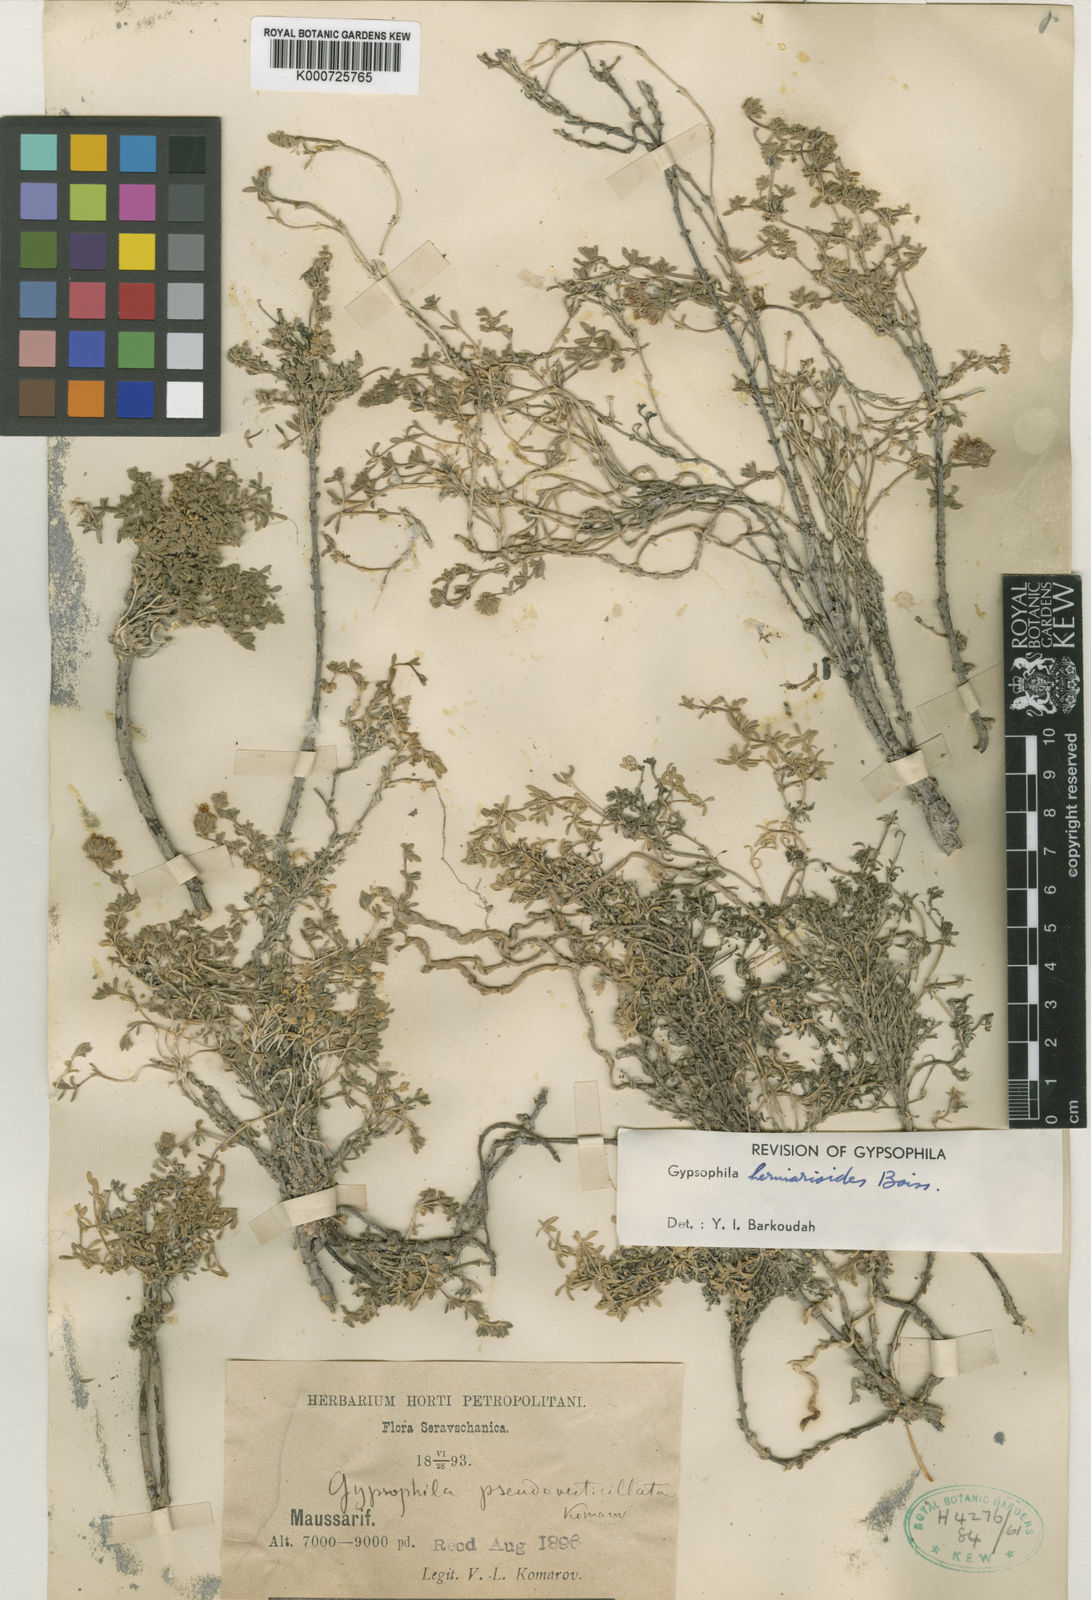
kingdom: Plantae
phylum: Tracheophyta
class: Magnoliopsida
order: Caryophyllales
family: Caryophyllaceae
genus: Acanthophyllum
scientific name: Acanthophyllum herniarioides
